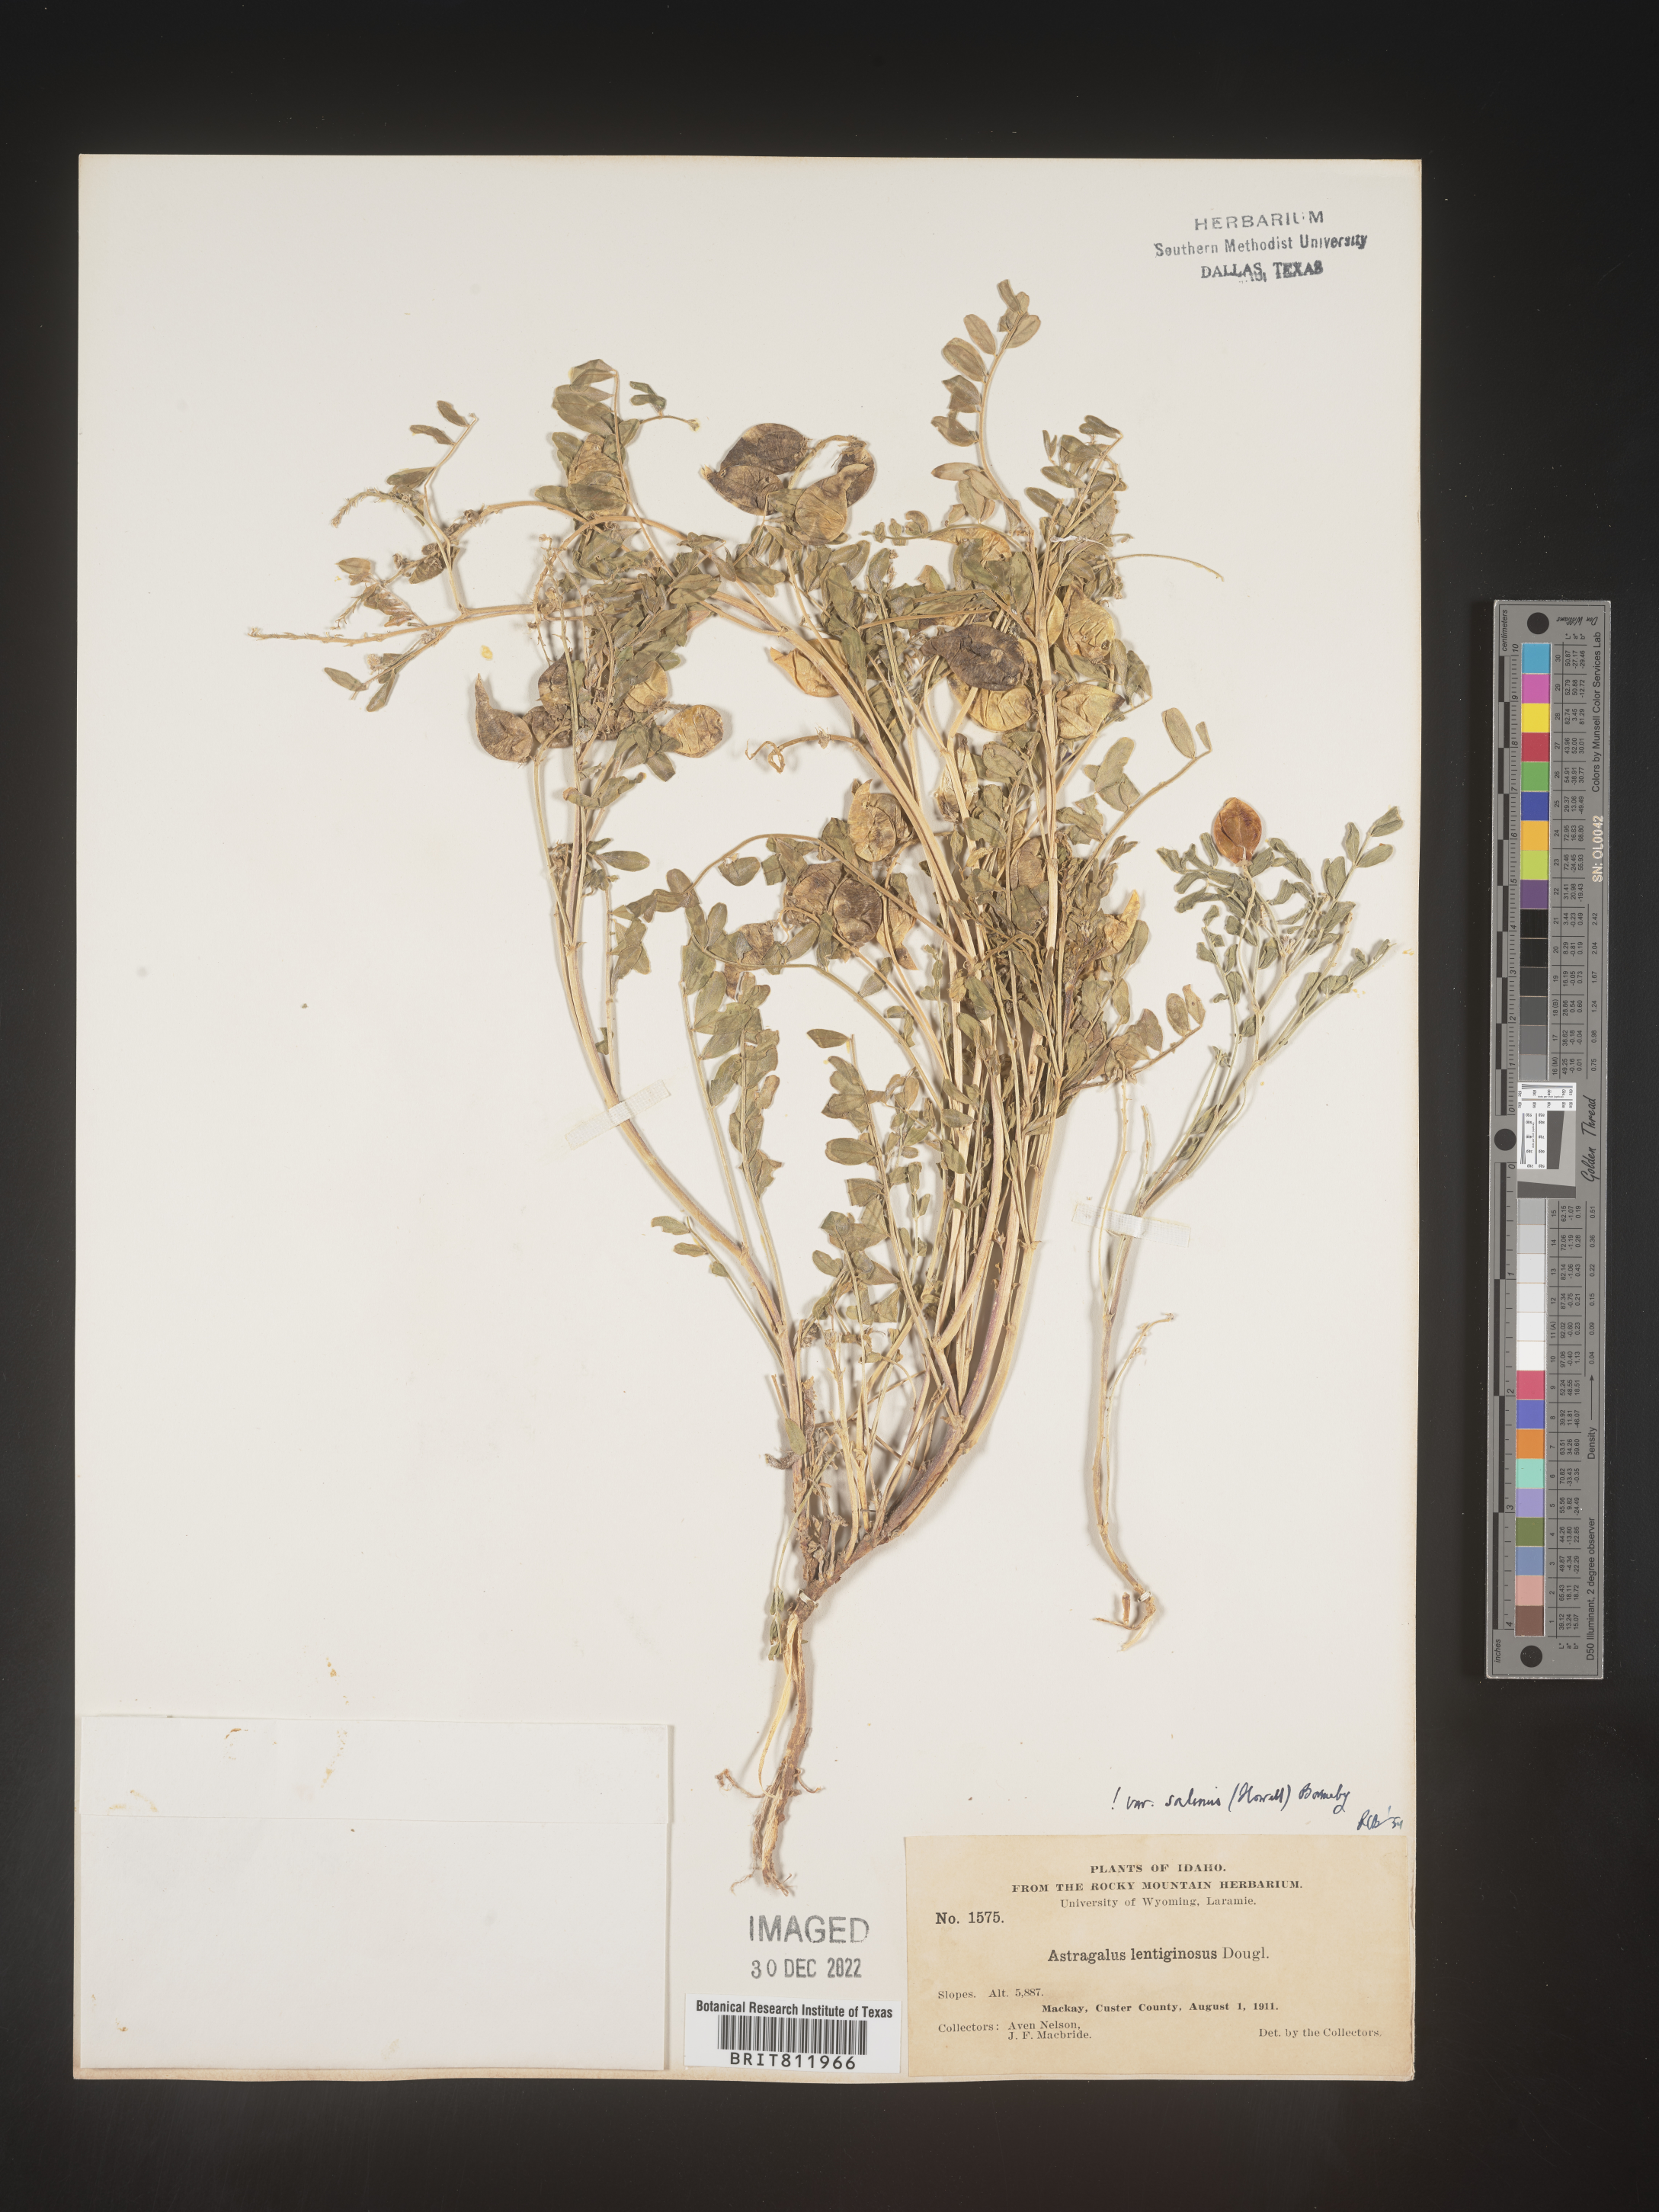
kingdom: Plantae
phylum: Tracheophyta
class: Magnoliopsida
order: Fabales
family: Fabaceae
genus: Astragalus
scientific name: Astragalus lentiginosus
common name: Freckled milkvetch
